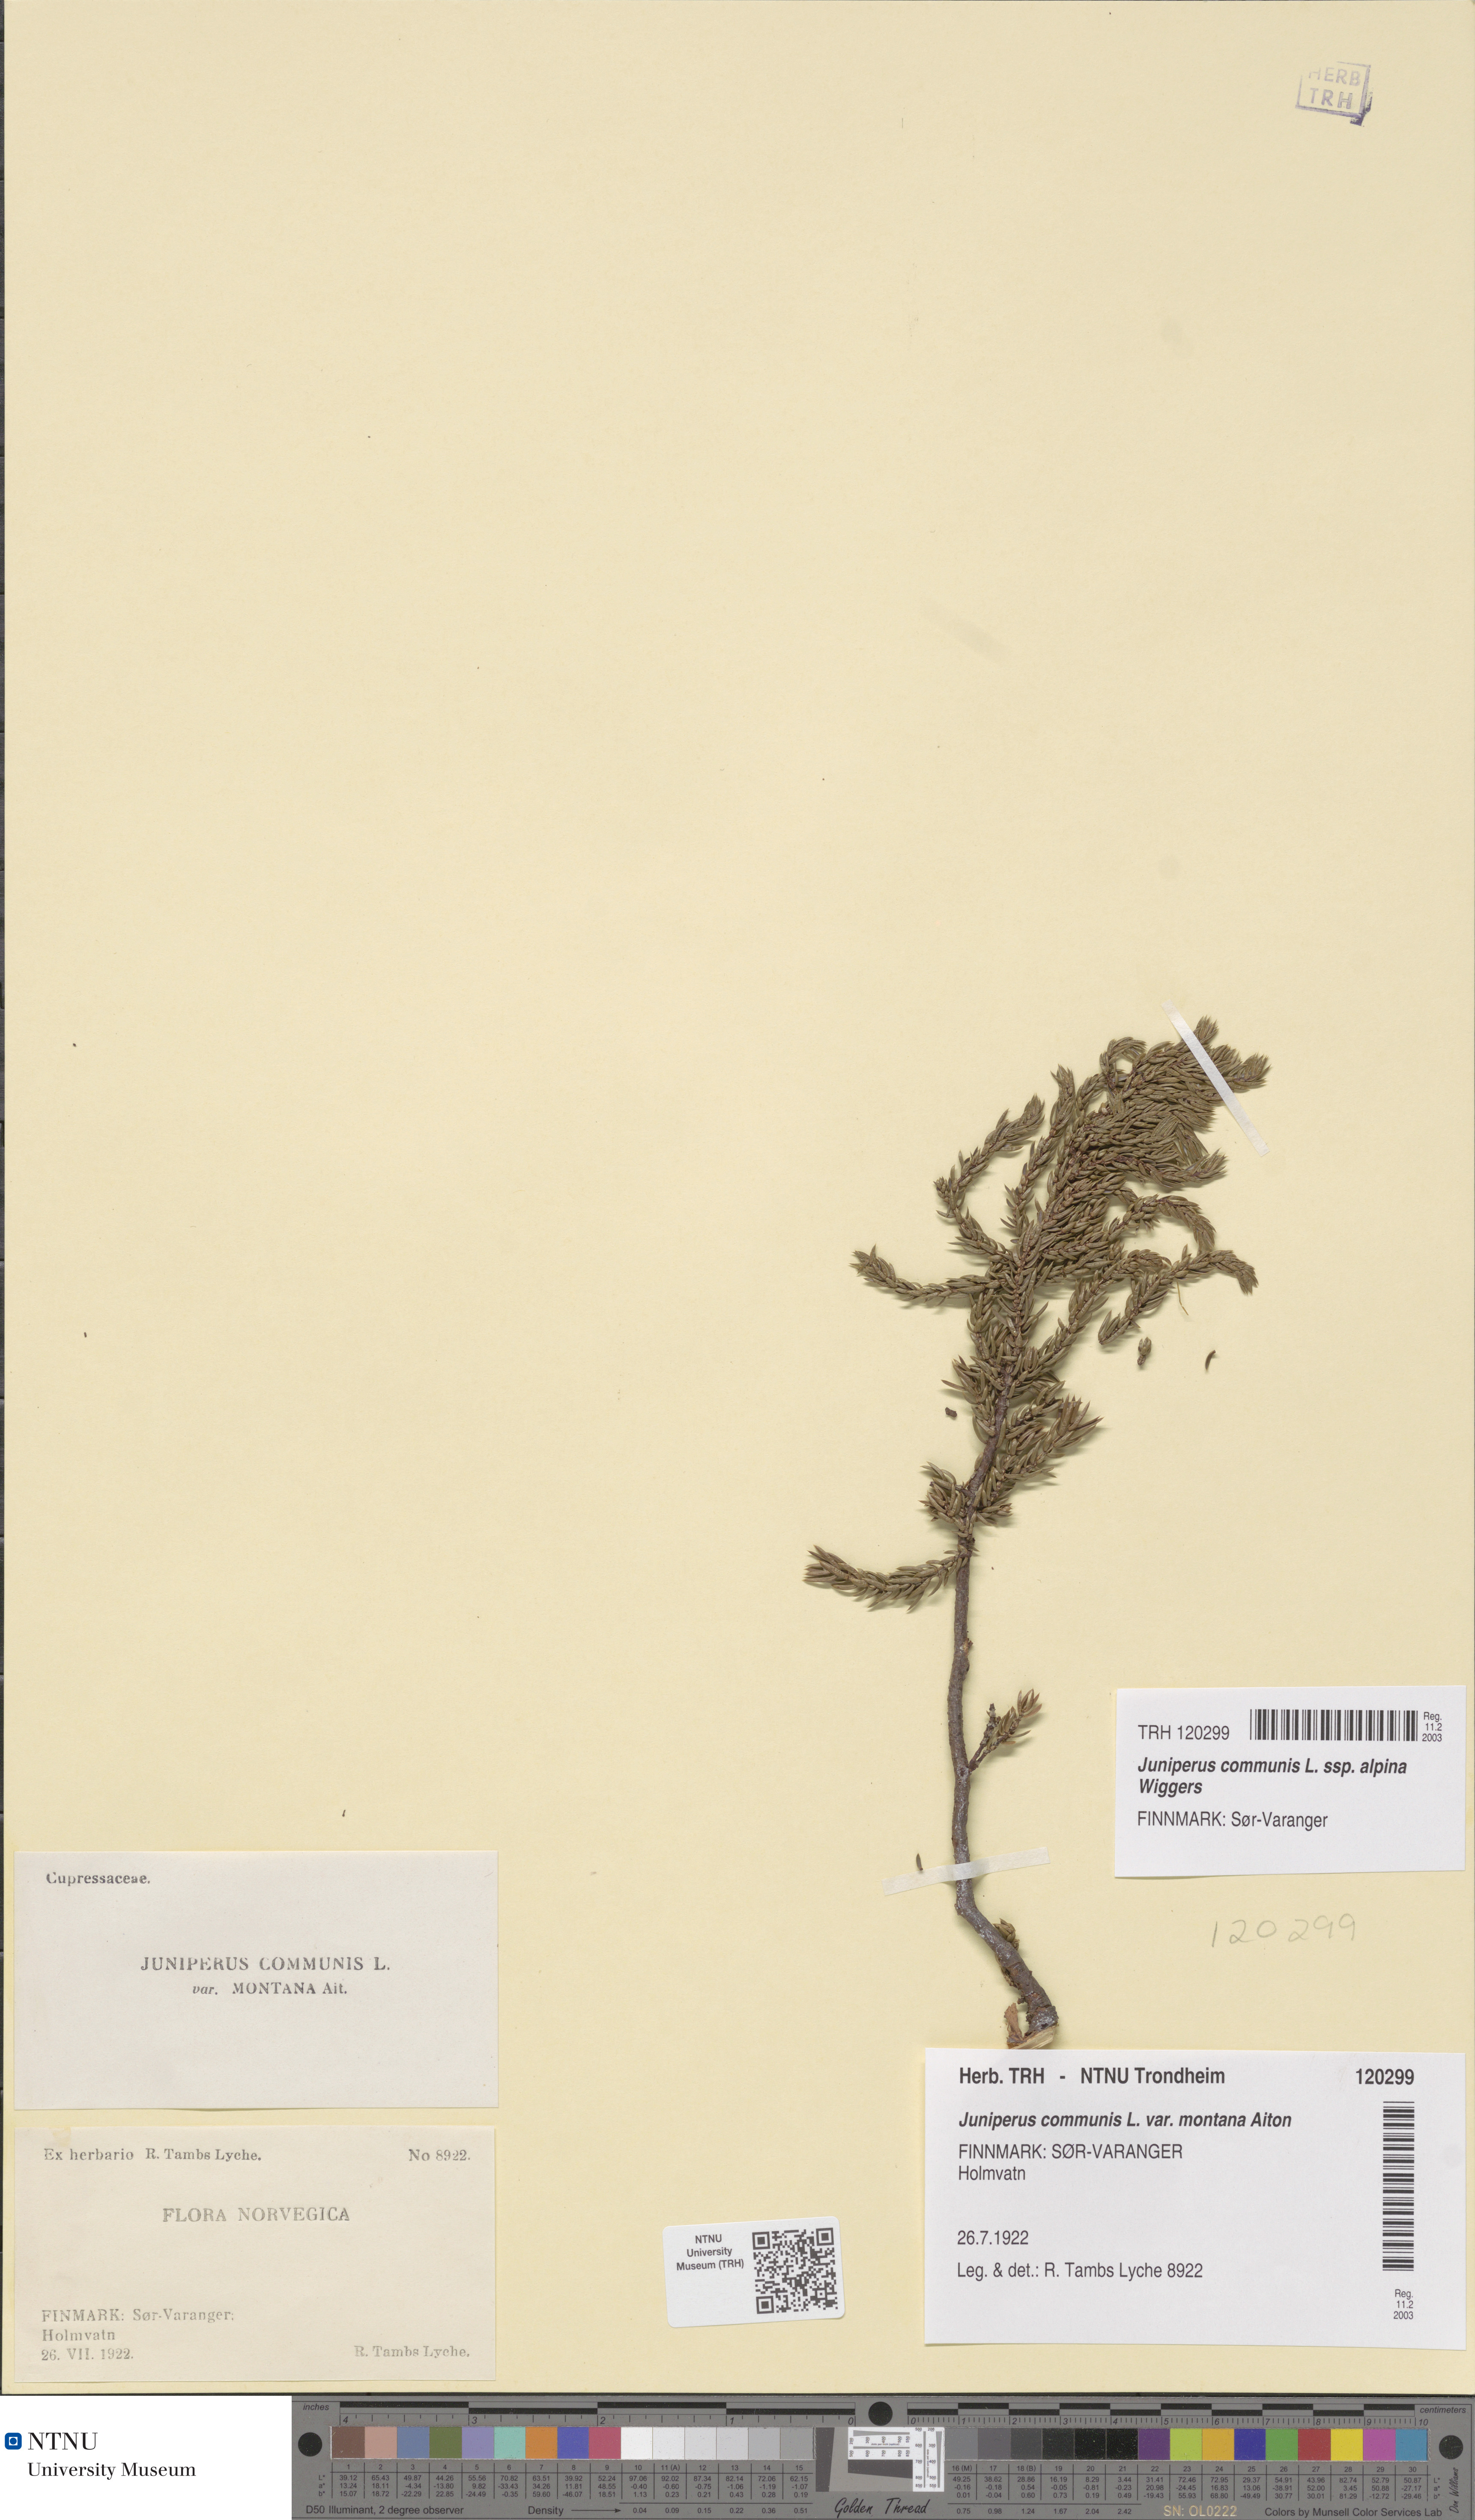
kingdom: Plantae
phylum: Tracheophyta
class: Pinopsida
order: Pinales
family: Cupressaceae
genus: Juniperus
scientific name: Juniperus communis
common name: Common juniper
